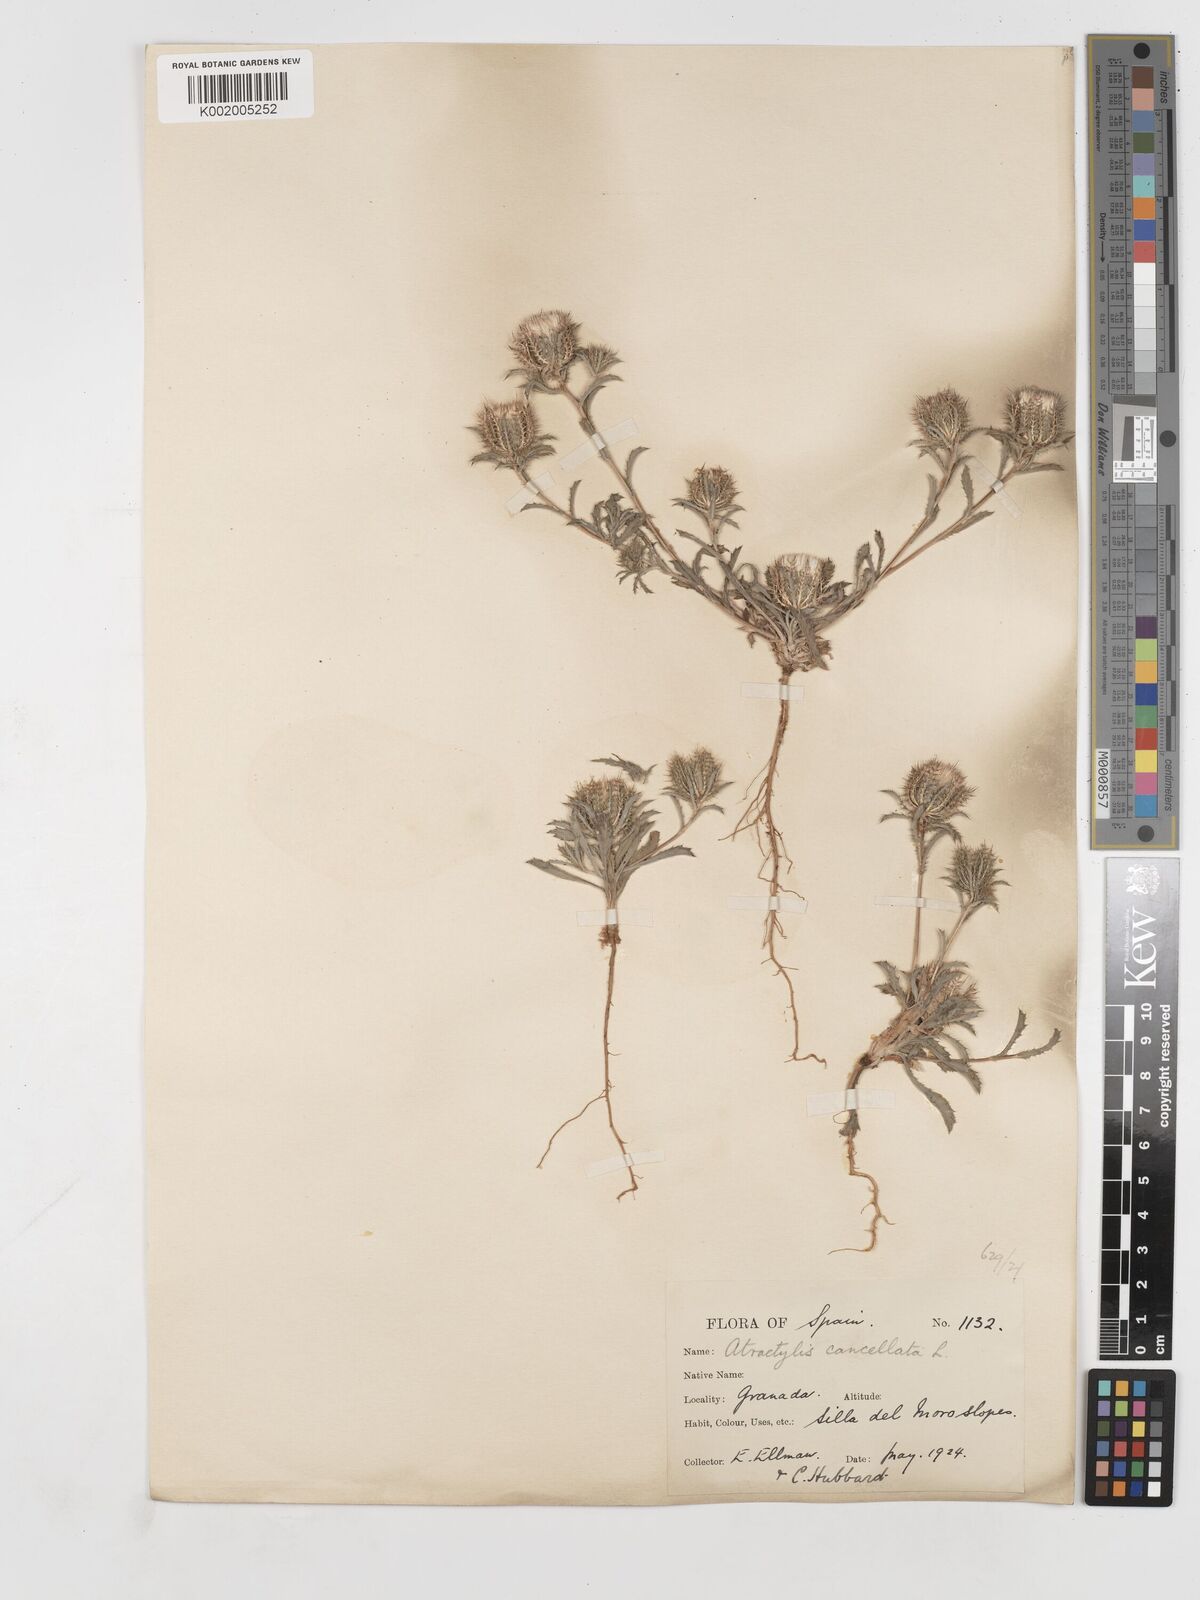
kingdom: Plantae
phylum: Tracheophyta
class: Magnoliopsida
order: Asterales
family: Asteraceae
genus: Atractylis
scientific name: Atractylis cancellata
